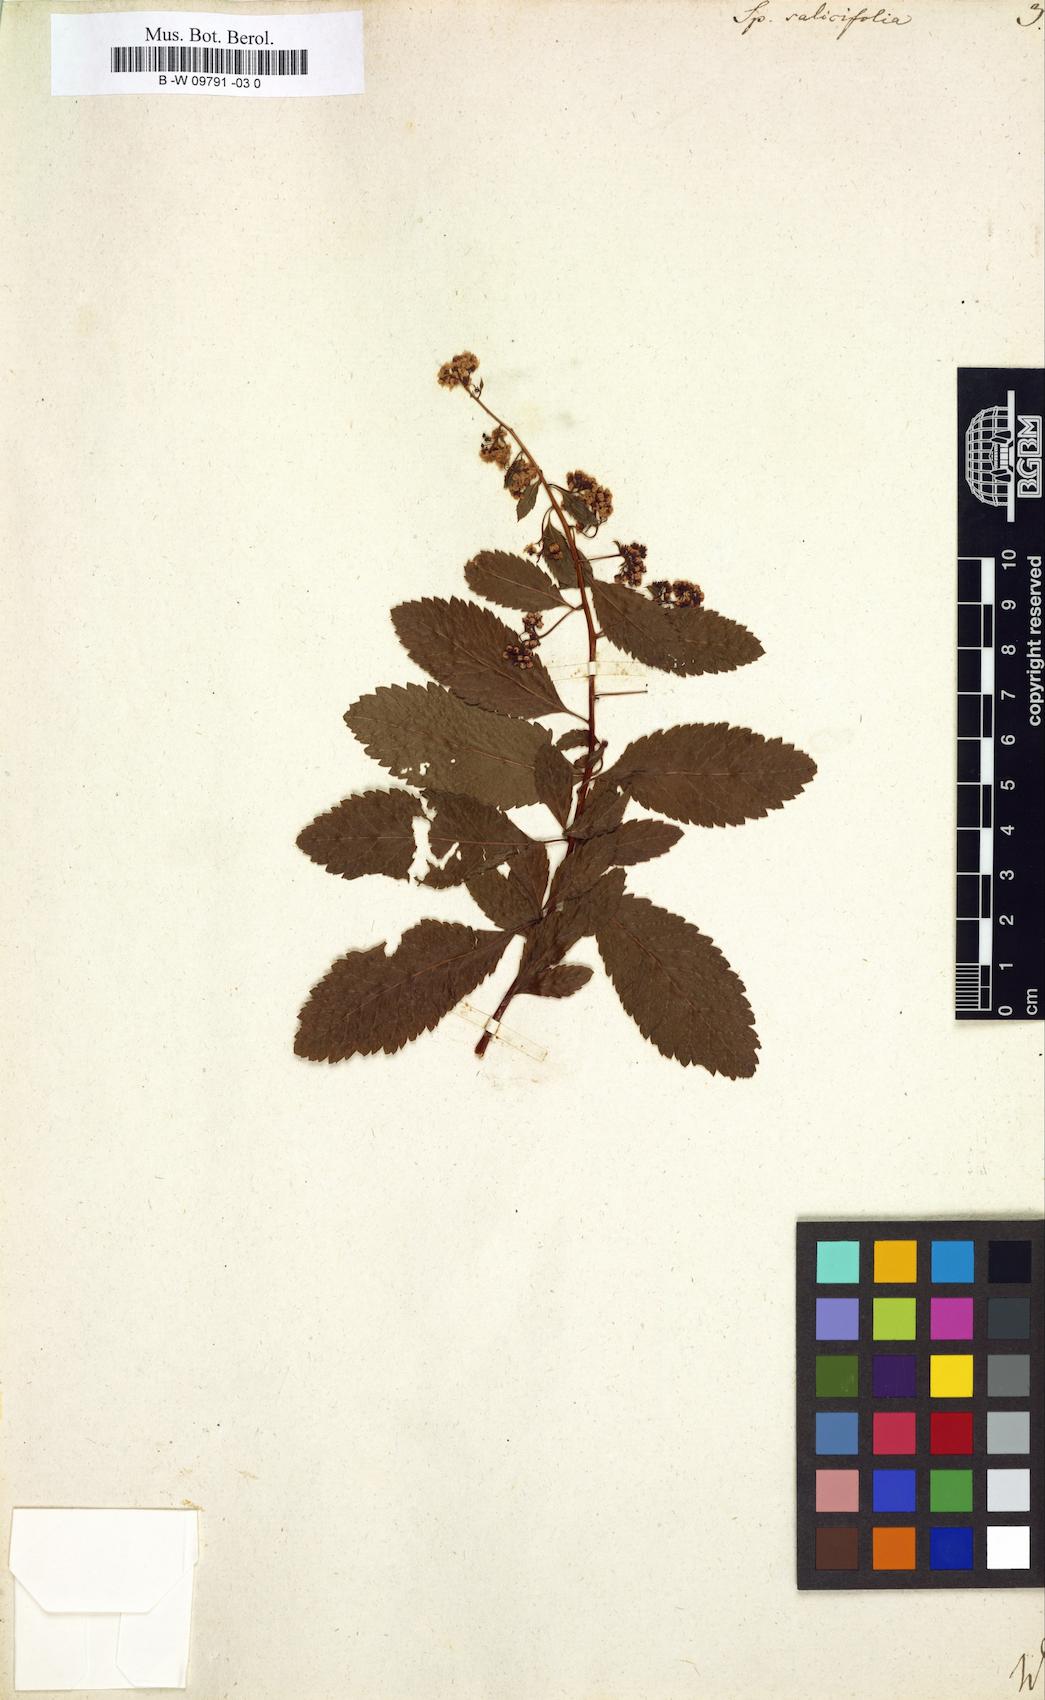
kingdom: Plantae
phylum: Tracheophyta
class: Magnoliopsida
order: Rosales
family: Rosaceae
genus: Spiraea
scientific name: Spiraea salicifolia
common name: Bridewort
